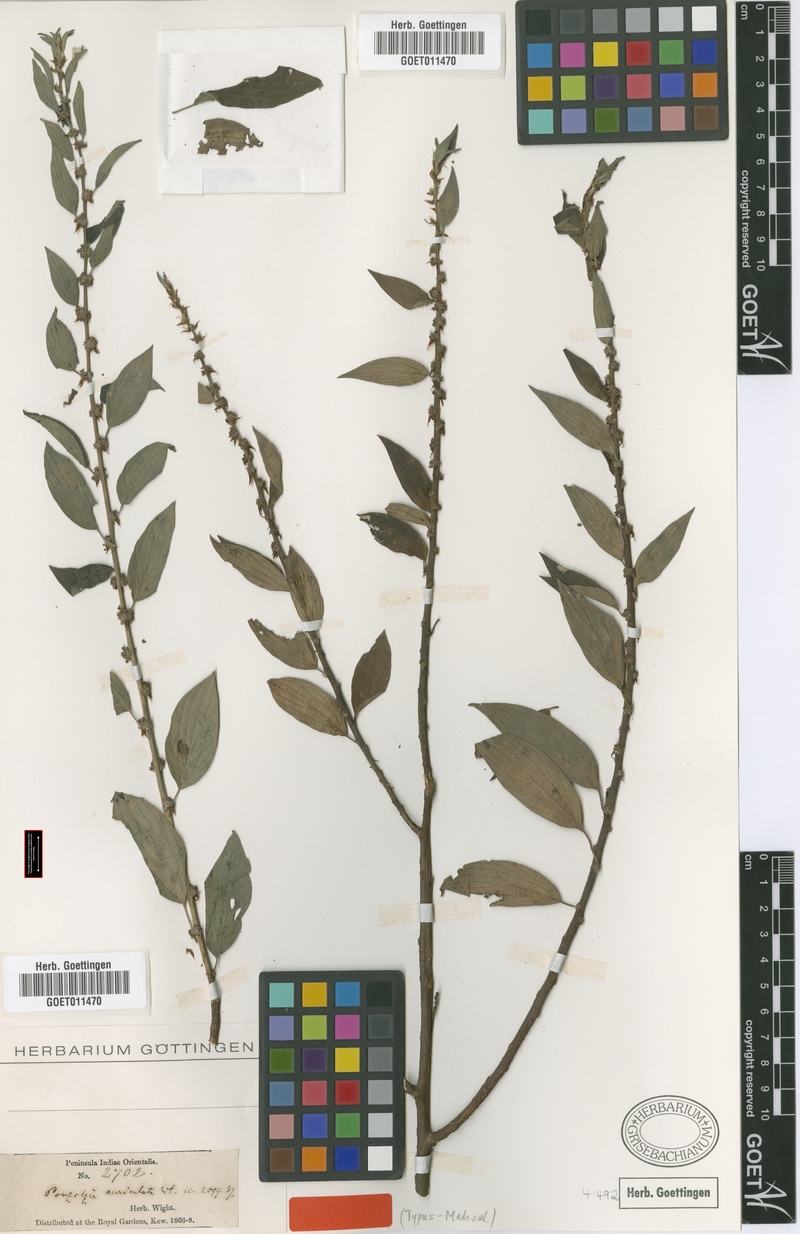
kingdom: Plantae
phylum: Tracheophyta
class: Magnoliopsida
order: Rosales
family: Urticaceae
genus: Pouzolzia
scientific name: Pouzolzia zeylanica
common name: Graceful pouzolzsbush
